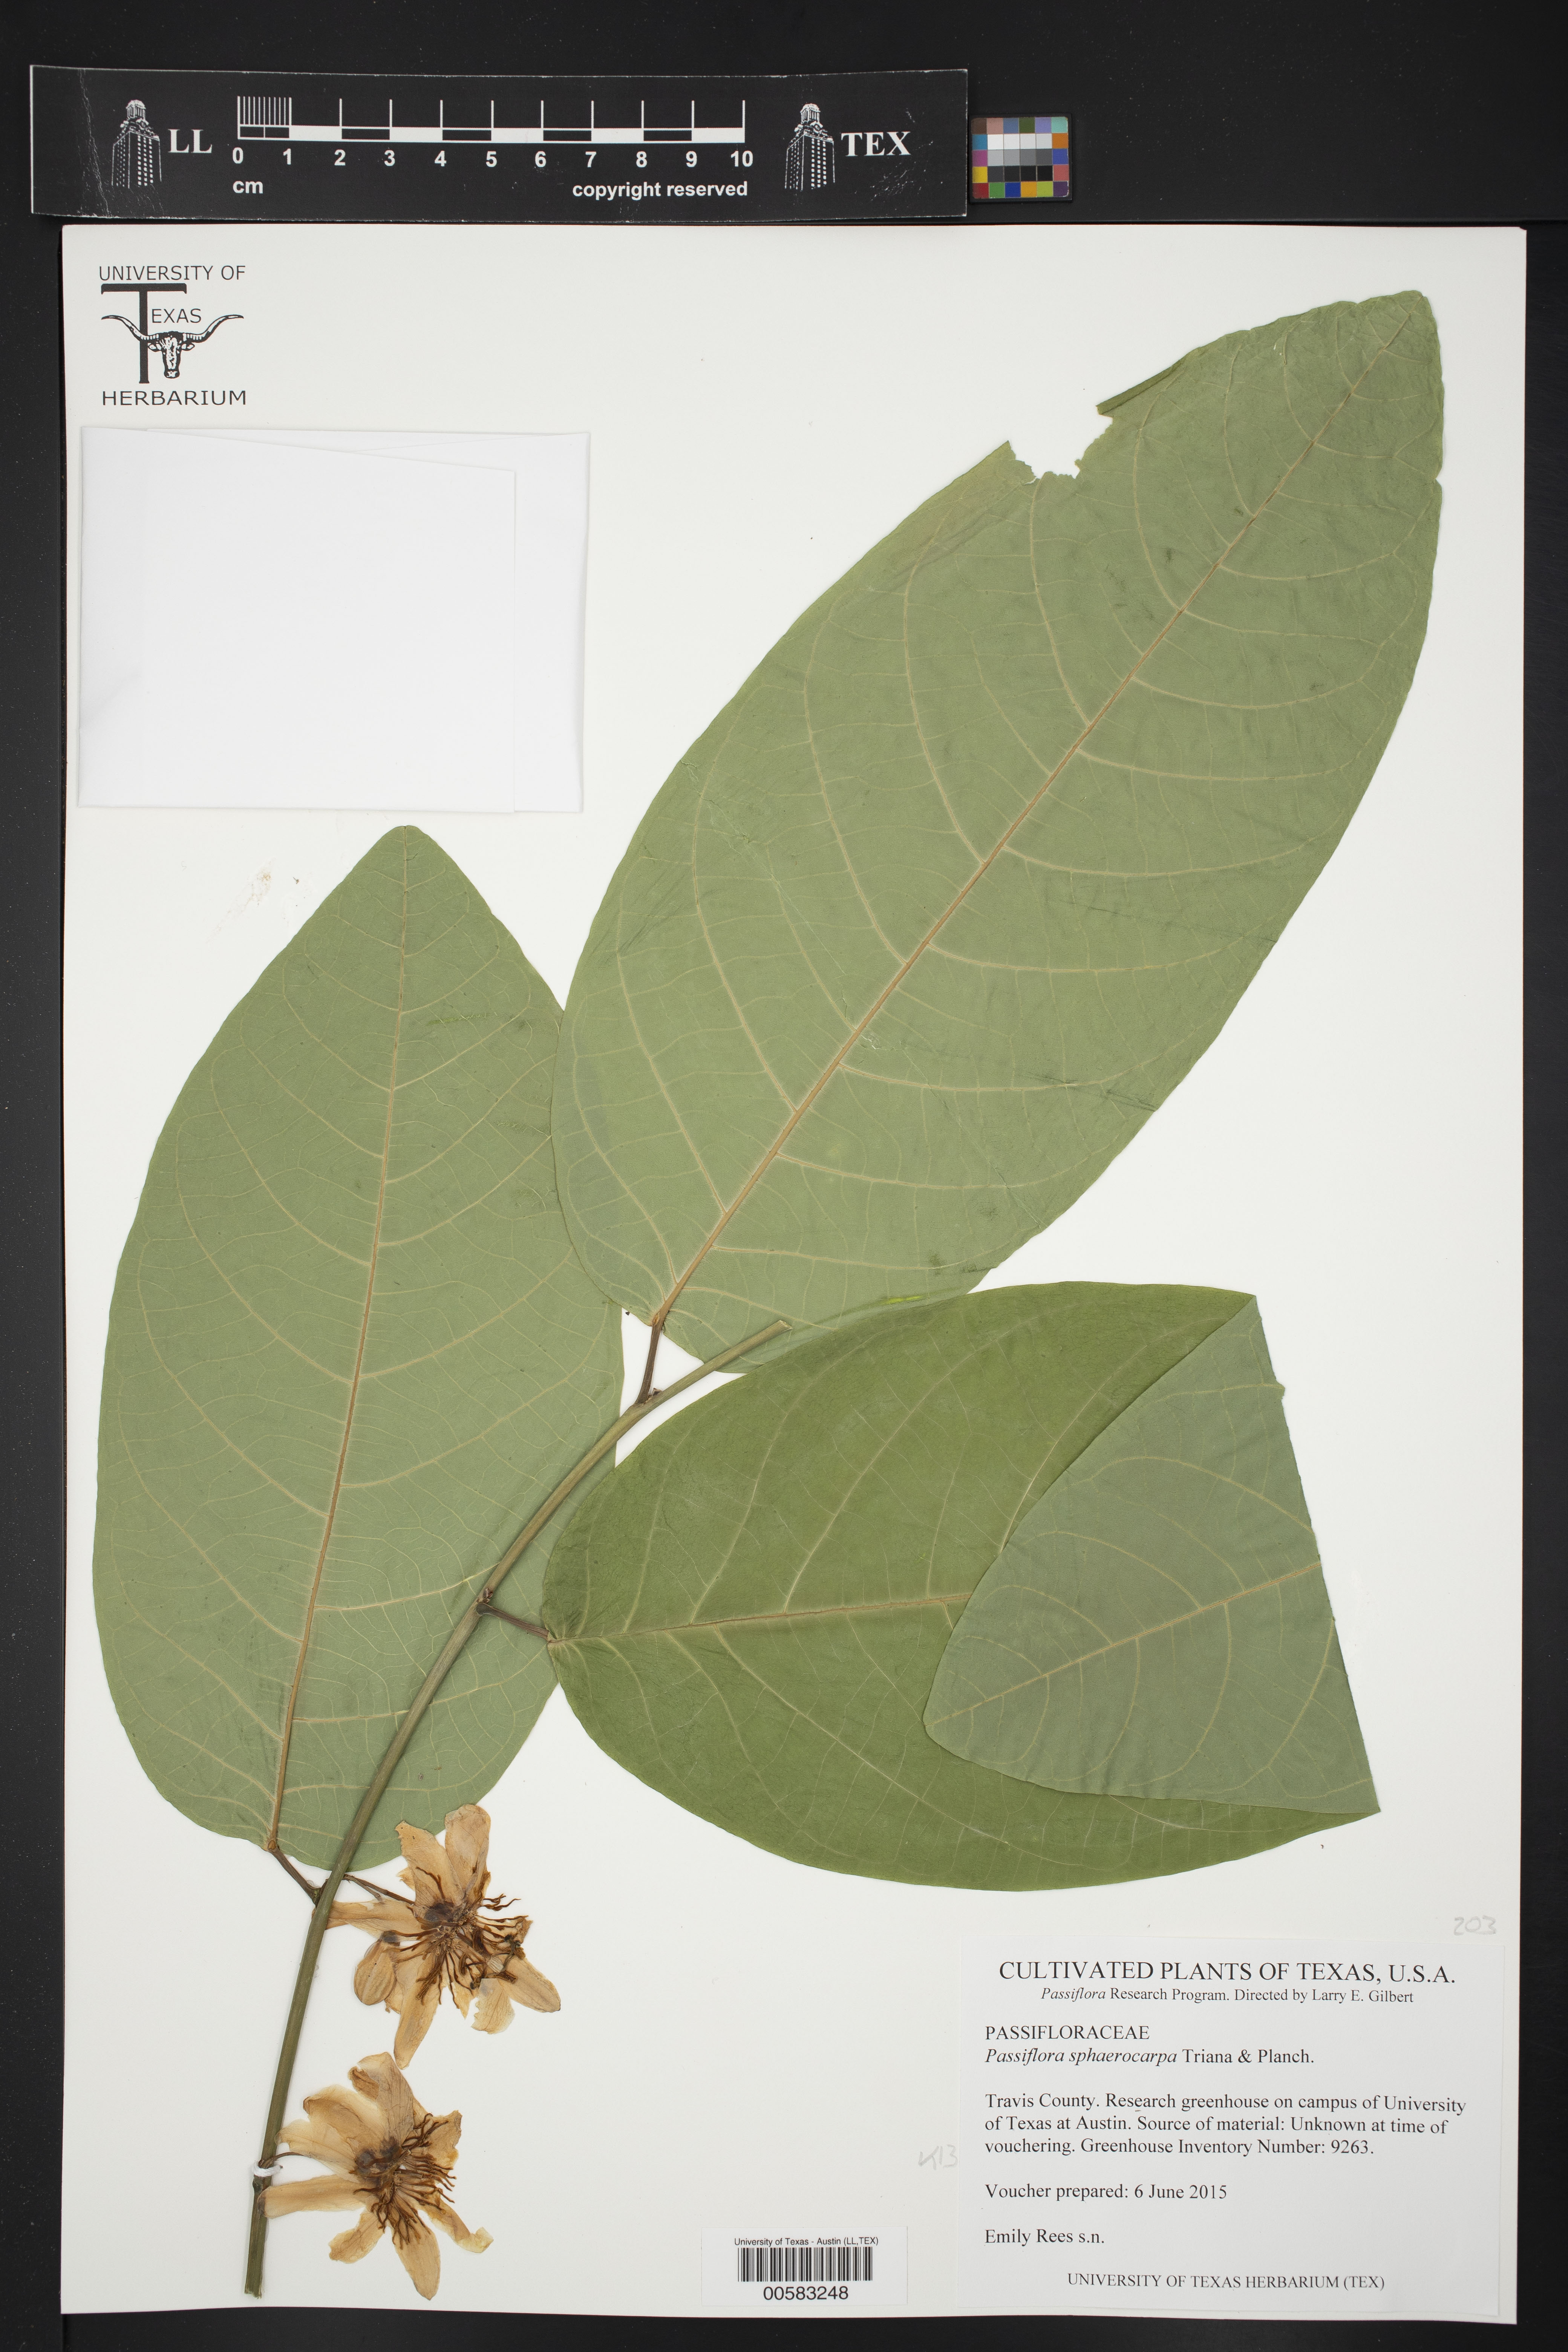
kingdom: Plantae
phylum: Tracheophyta
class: Magnoliopsida
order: Malpighiales
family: Passifloraceae
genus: Passiflora
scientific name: Passiflora sphaerocarpa
